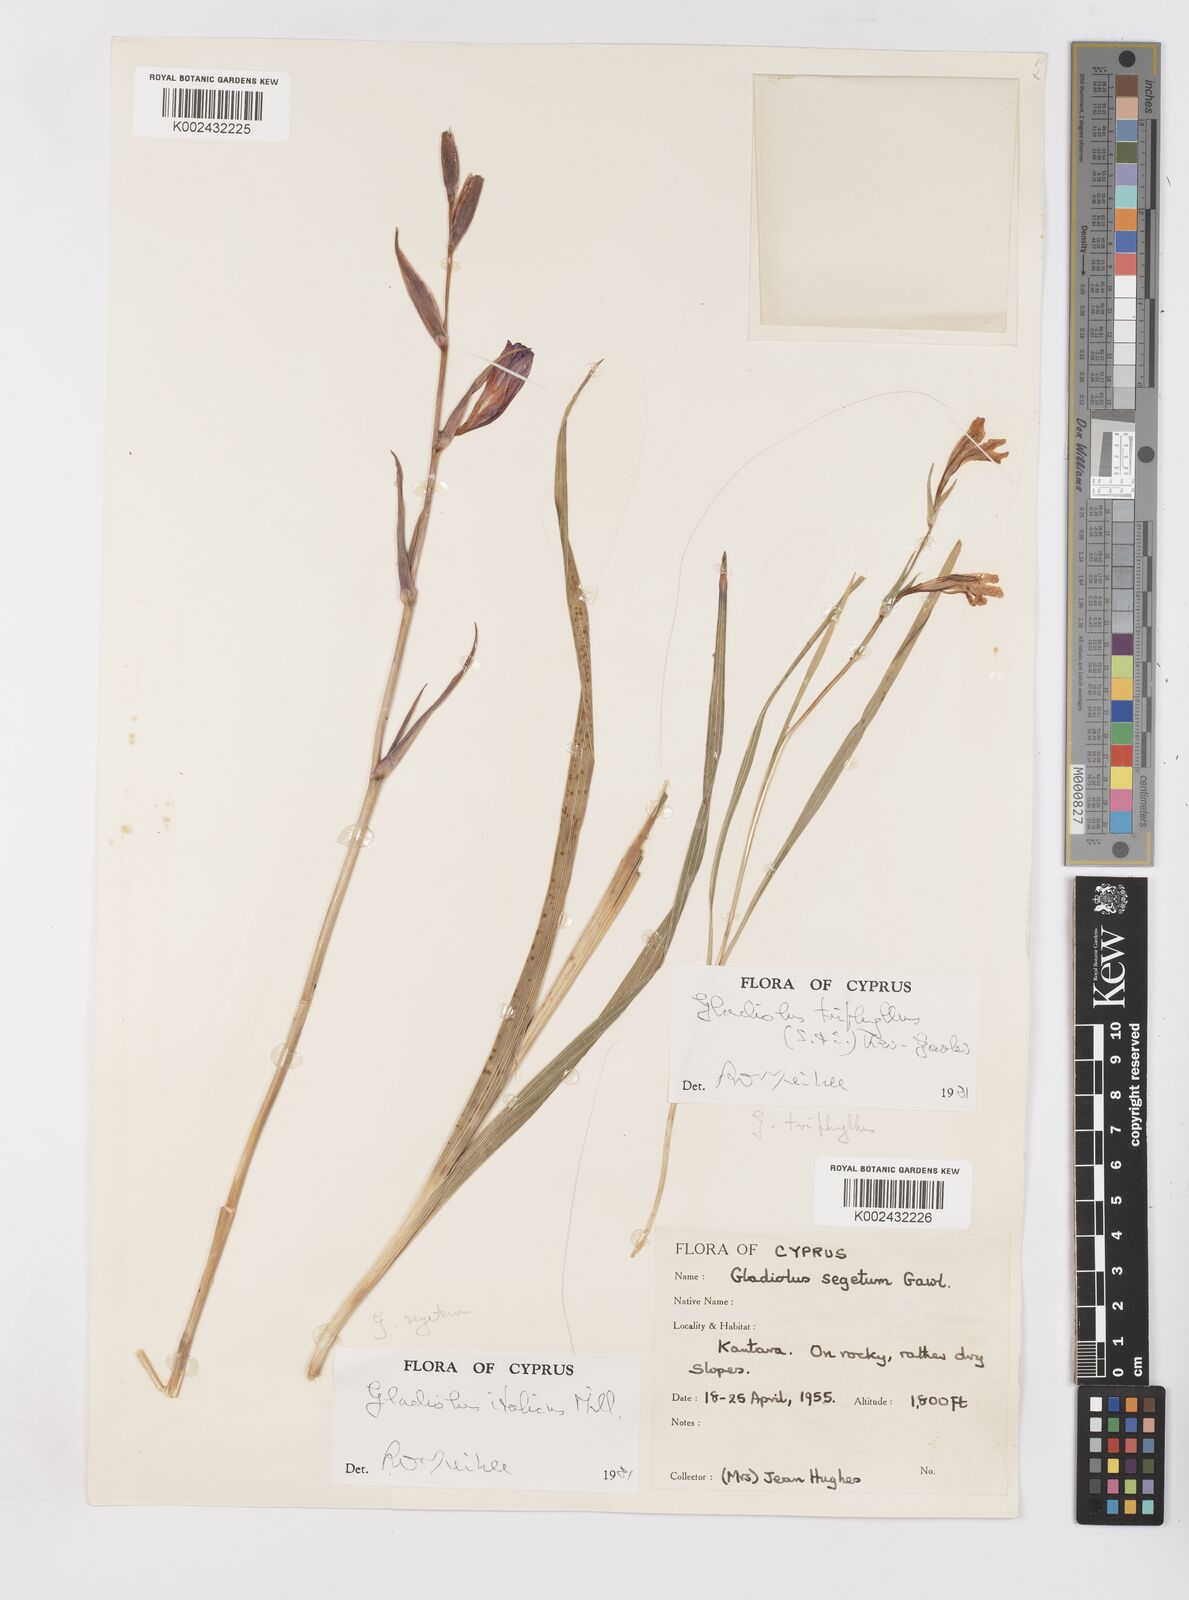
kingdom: Plantae
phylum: Tracheophyta
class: Liliopsida
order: Asparagales
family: Iridaceae
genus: Gladiolus
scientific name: Gladiolus italicus
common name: Field gladiolus
